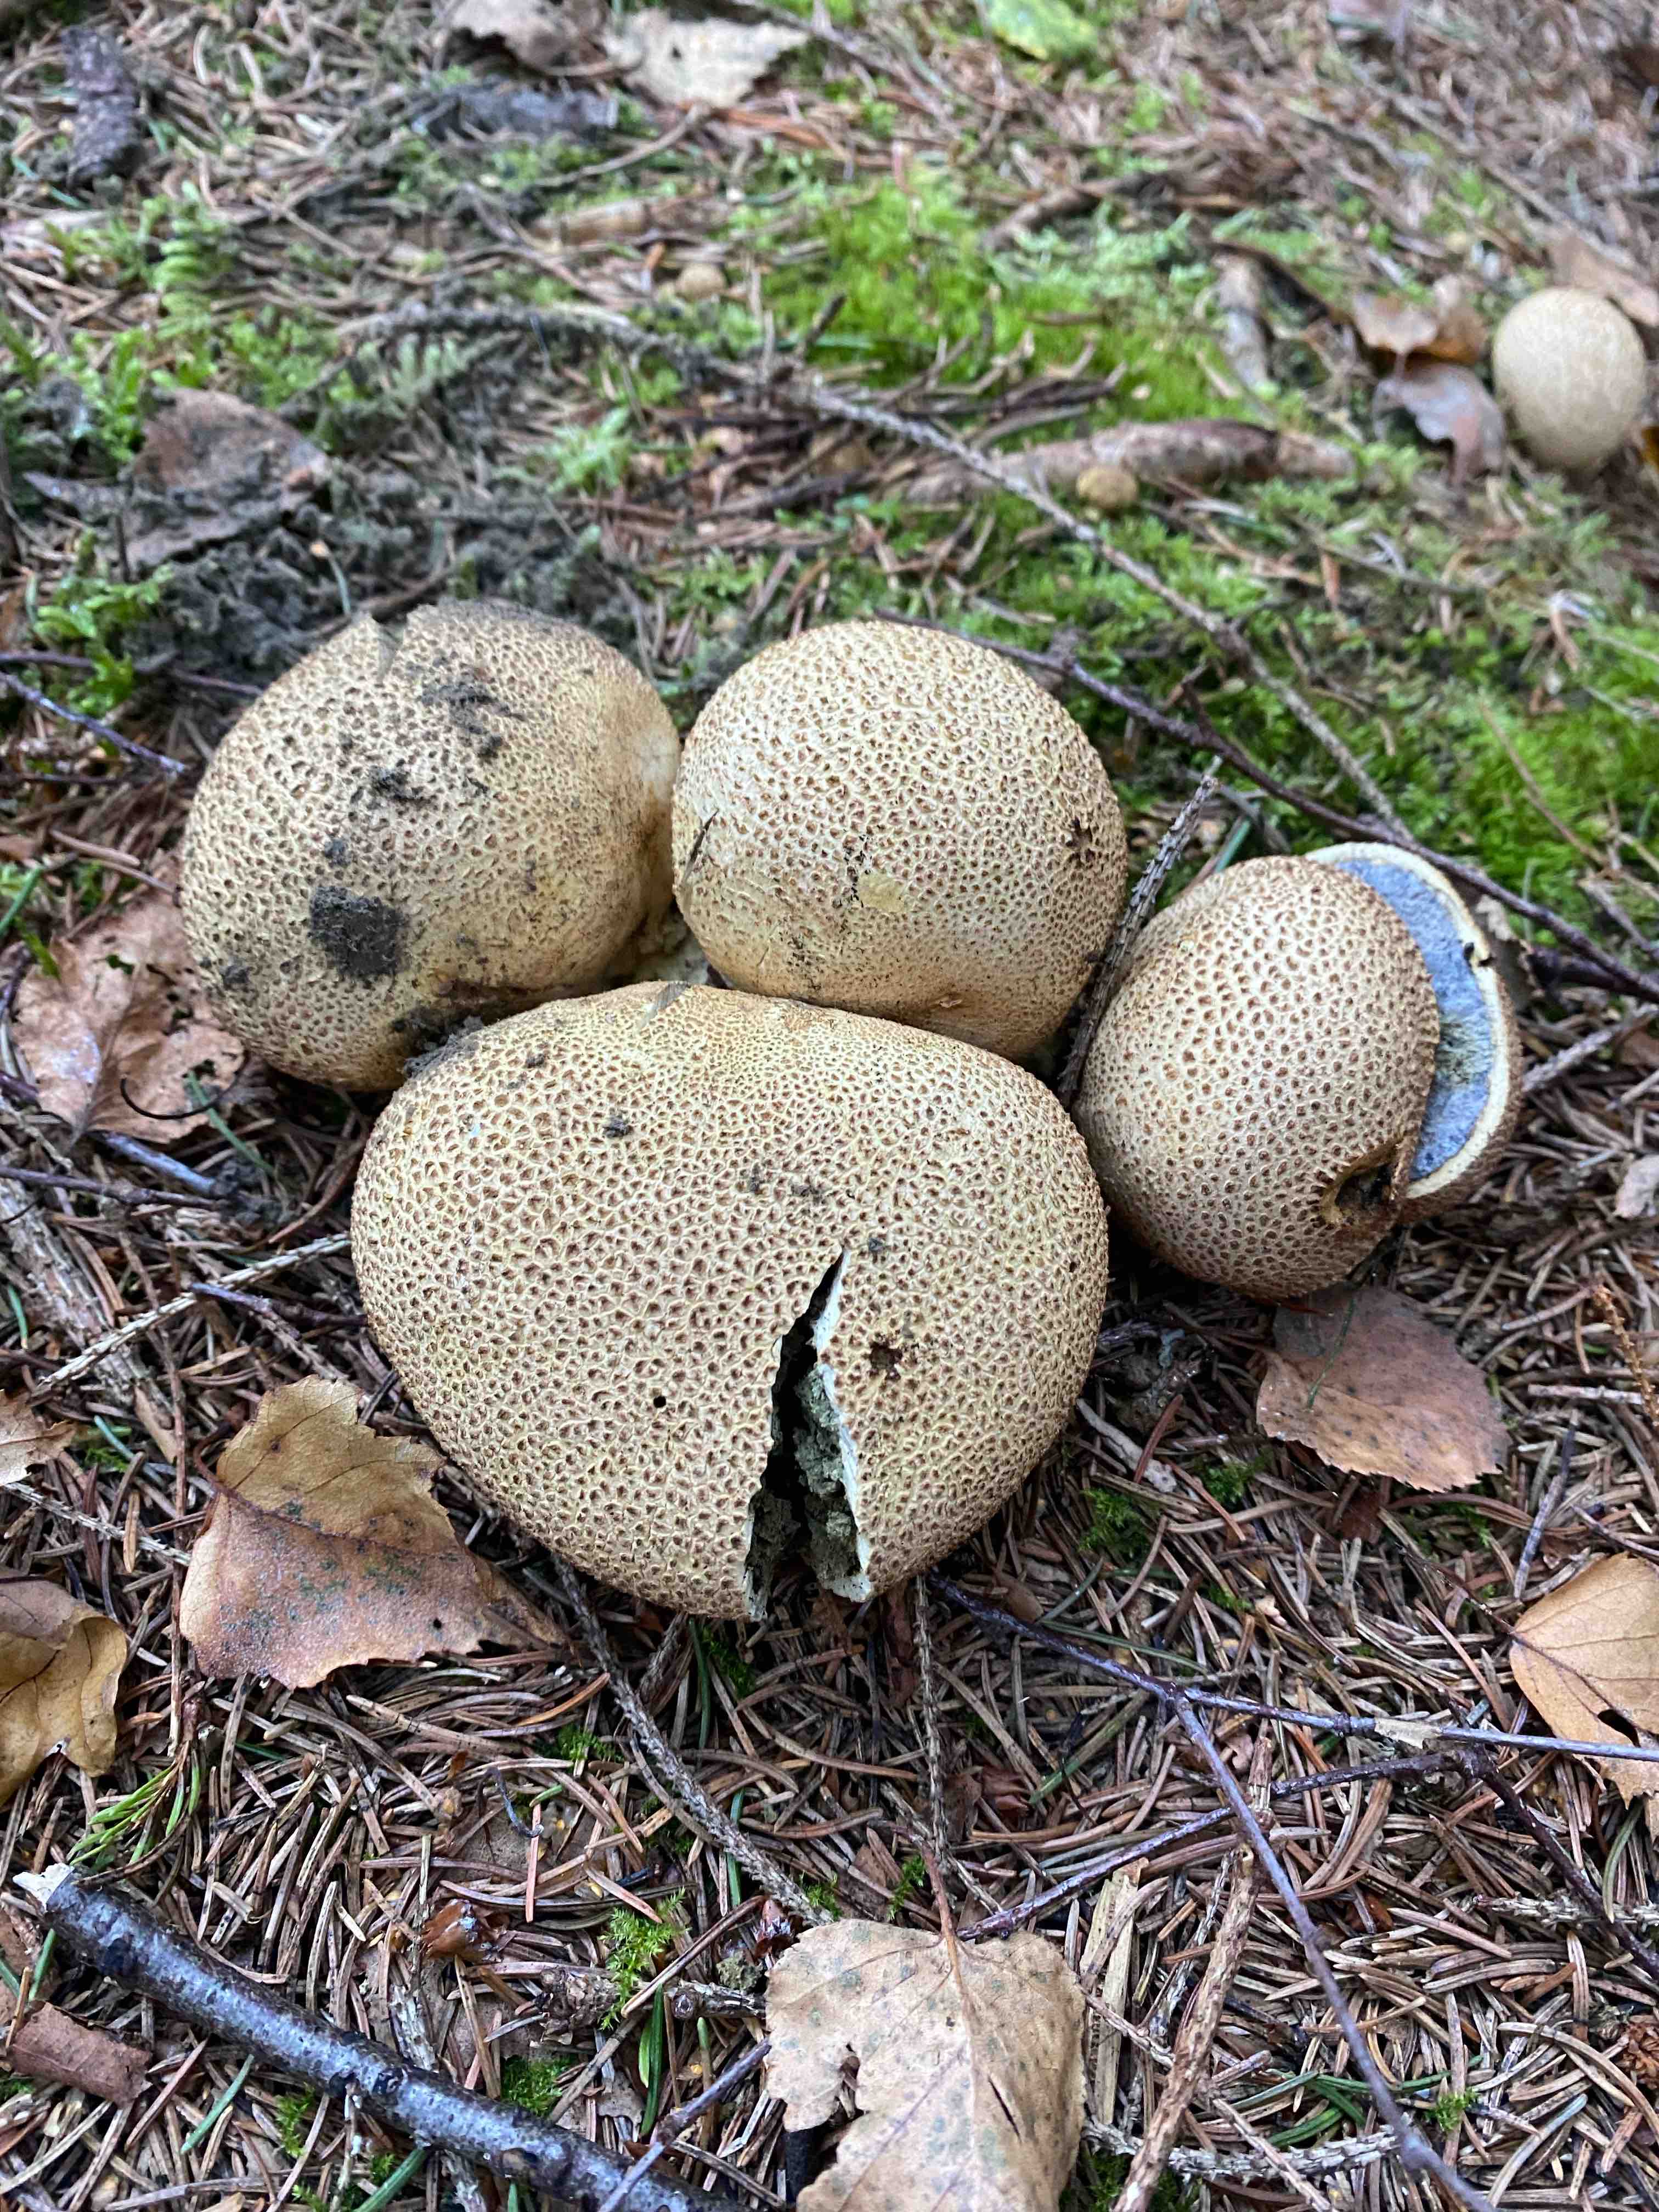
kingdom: Fungi
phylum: Basidiomycota
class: Agaricomycetes
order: Boletales
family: Sclerodermataceae
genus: Scleroderma
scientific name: Scleroderma citrinum
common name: almindelig bruskbold
